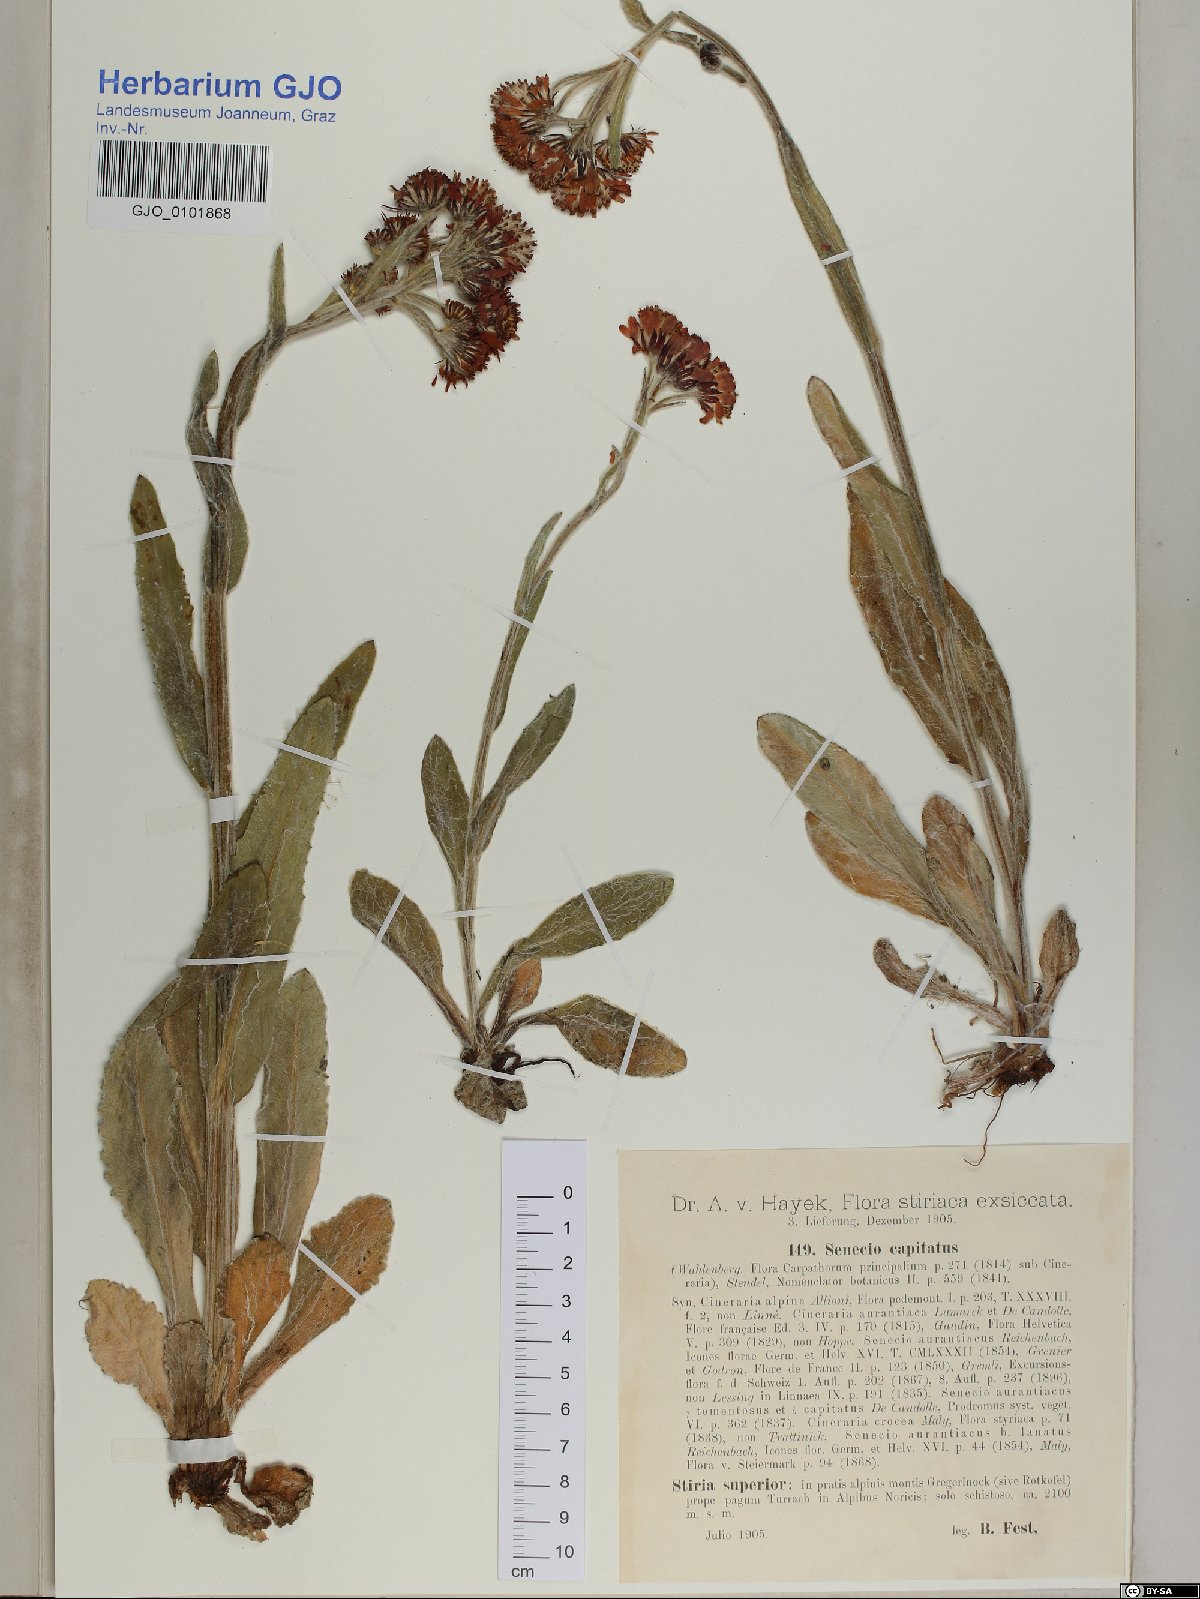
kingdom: Plantae
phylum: Tracheophyta
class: Magnoliopsida
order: Asterales
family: Asteraceae
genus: Tephroseris
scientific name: Tephroseris integrifolia
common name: Field fleawort
